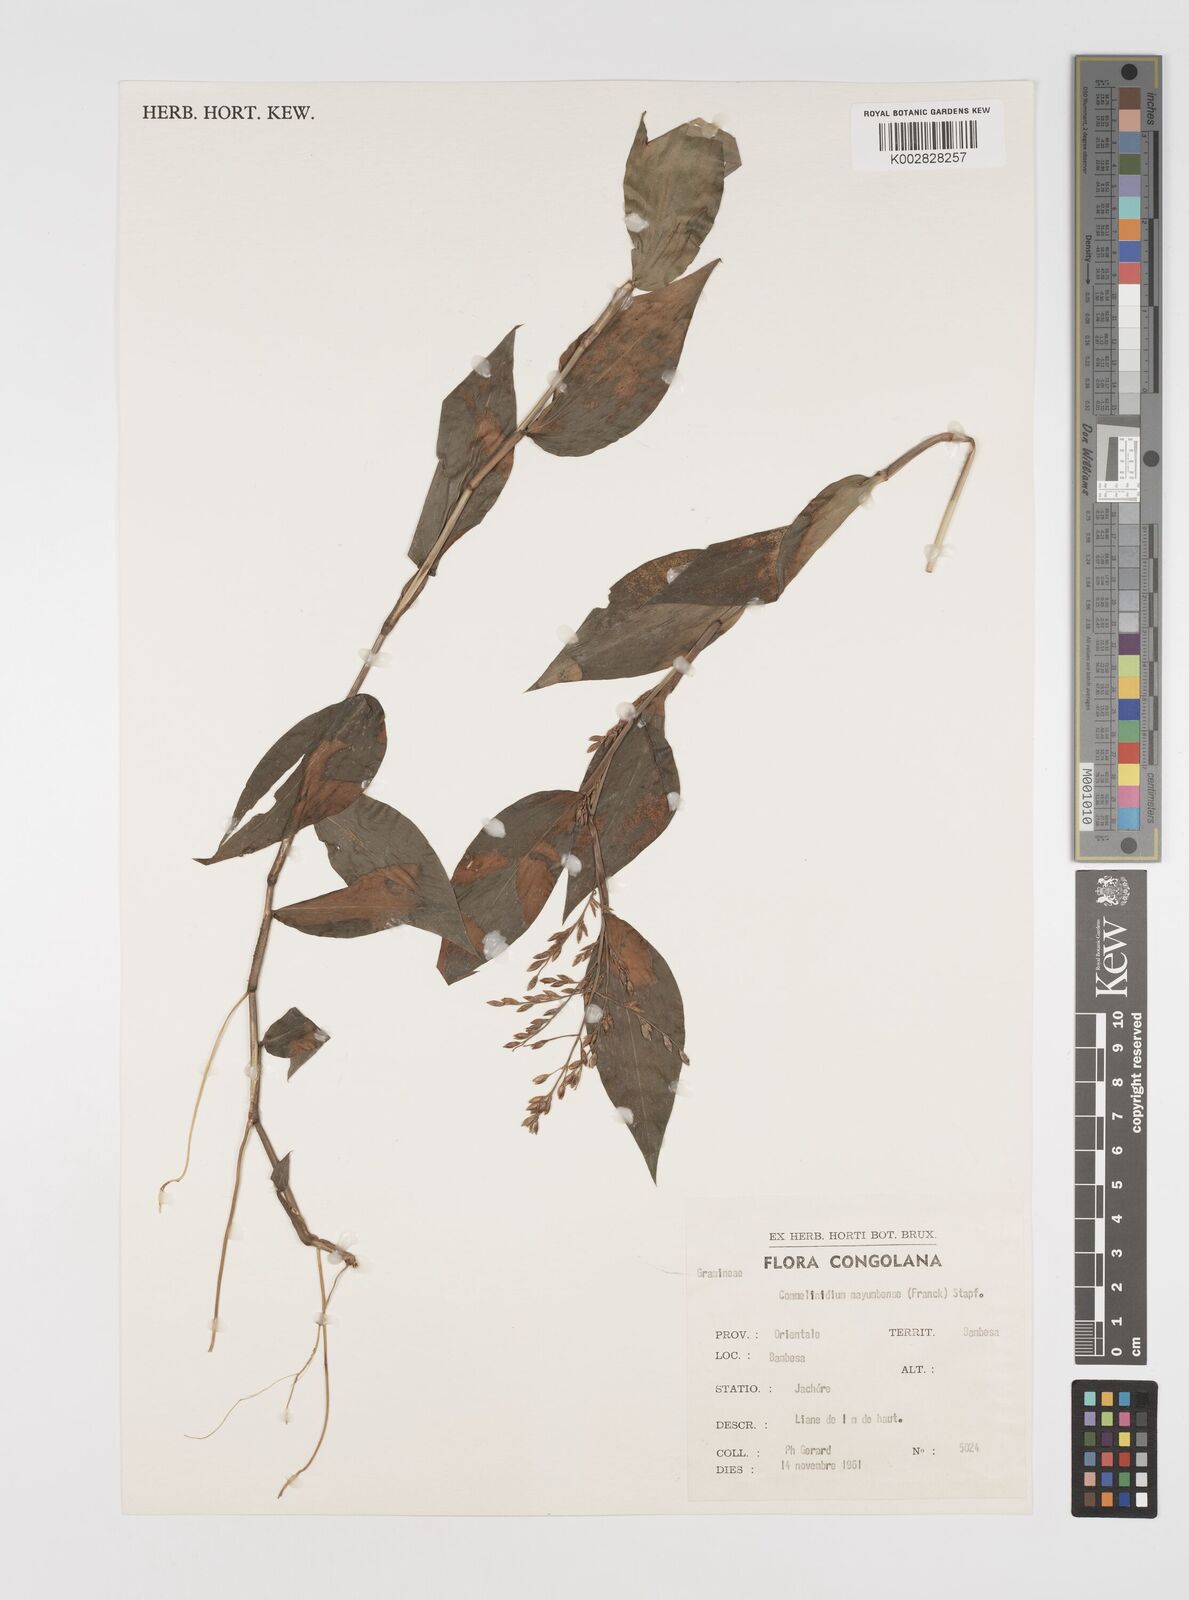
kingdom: Plantae
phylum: Tracheophyta
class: Liliopsida
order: Poales
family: Poaceae
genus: Acroceras
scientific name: Acroceras gabunense
